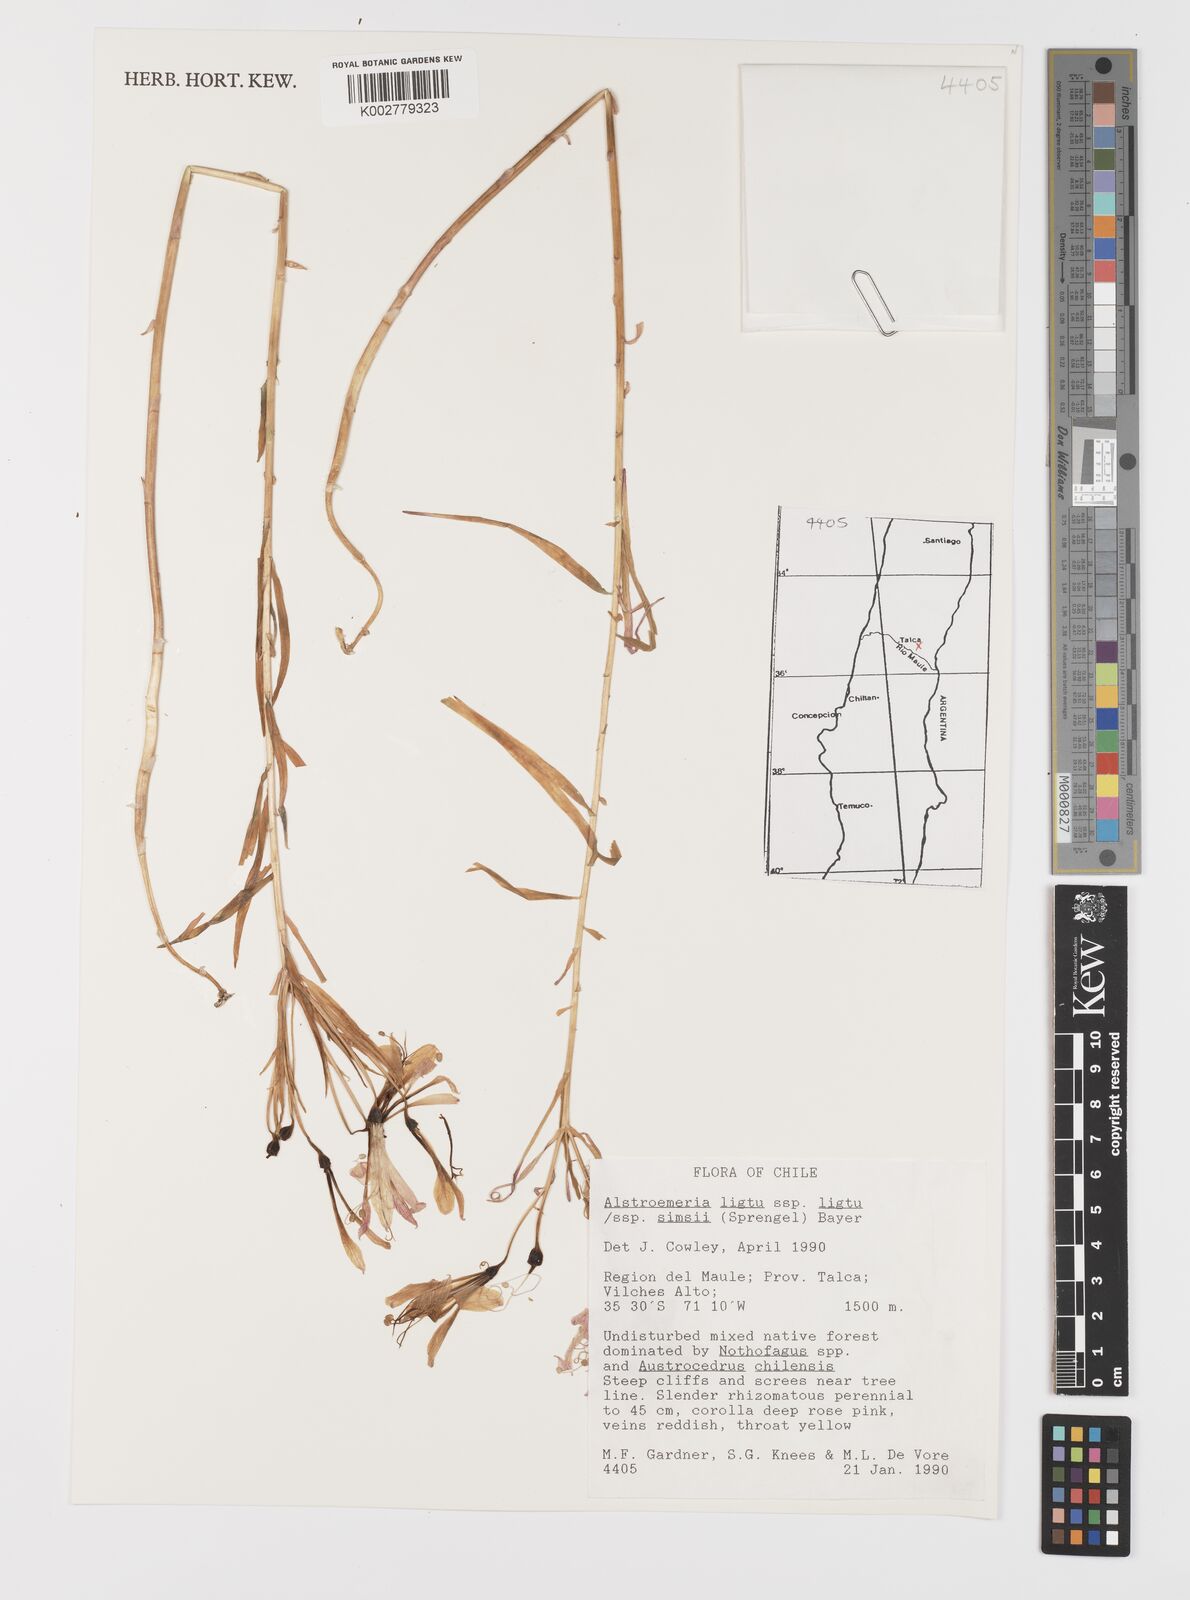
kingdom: Plantae
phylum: Tracheophyta
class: Liliopsida
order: Liliales
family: Alstroemeriaceae
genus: Alstroemeria
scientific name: Alstroemeria ligtu
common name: St. martin's-flower
